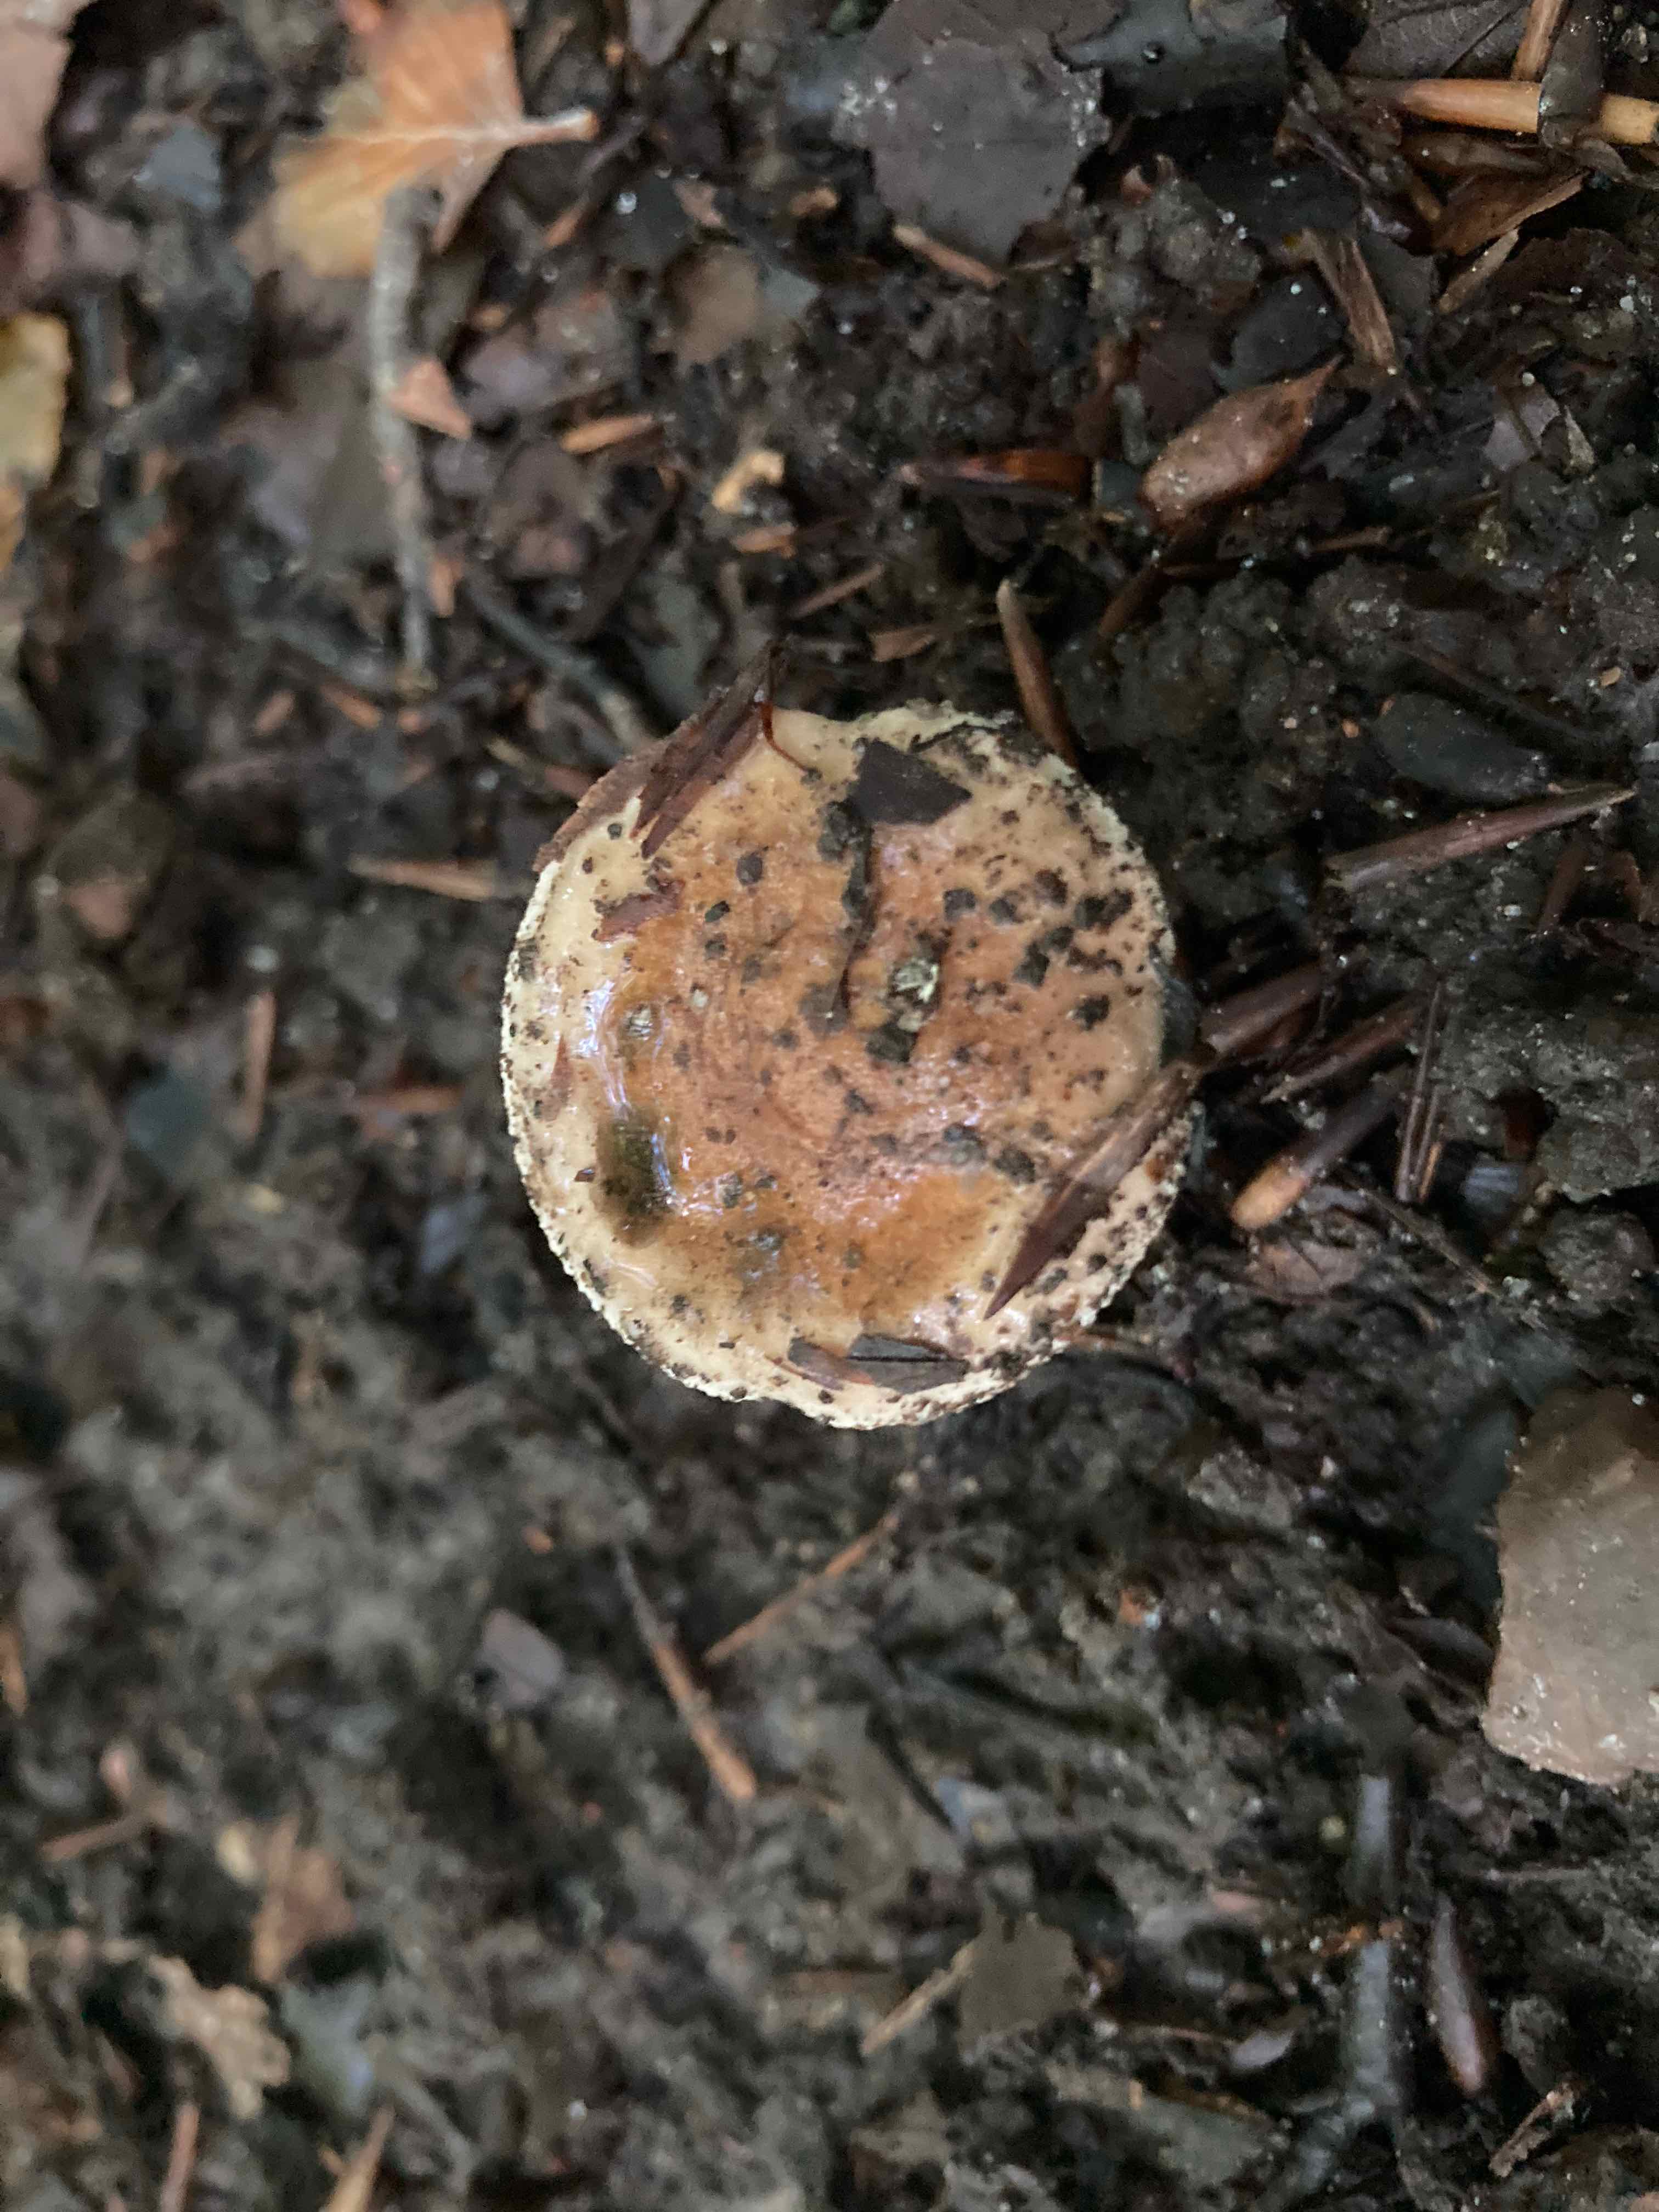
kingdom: Fungi
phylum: Basidiomycota
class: Agaricomycetes
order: Agaricales
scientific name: Agaricales
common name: champignonordenen
